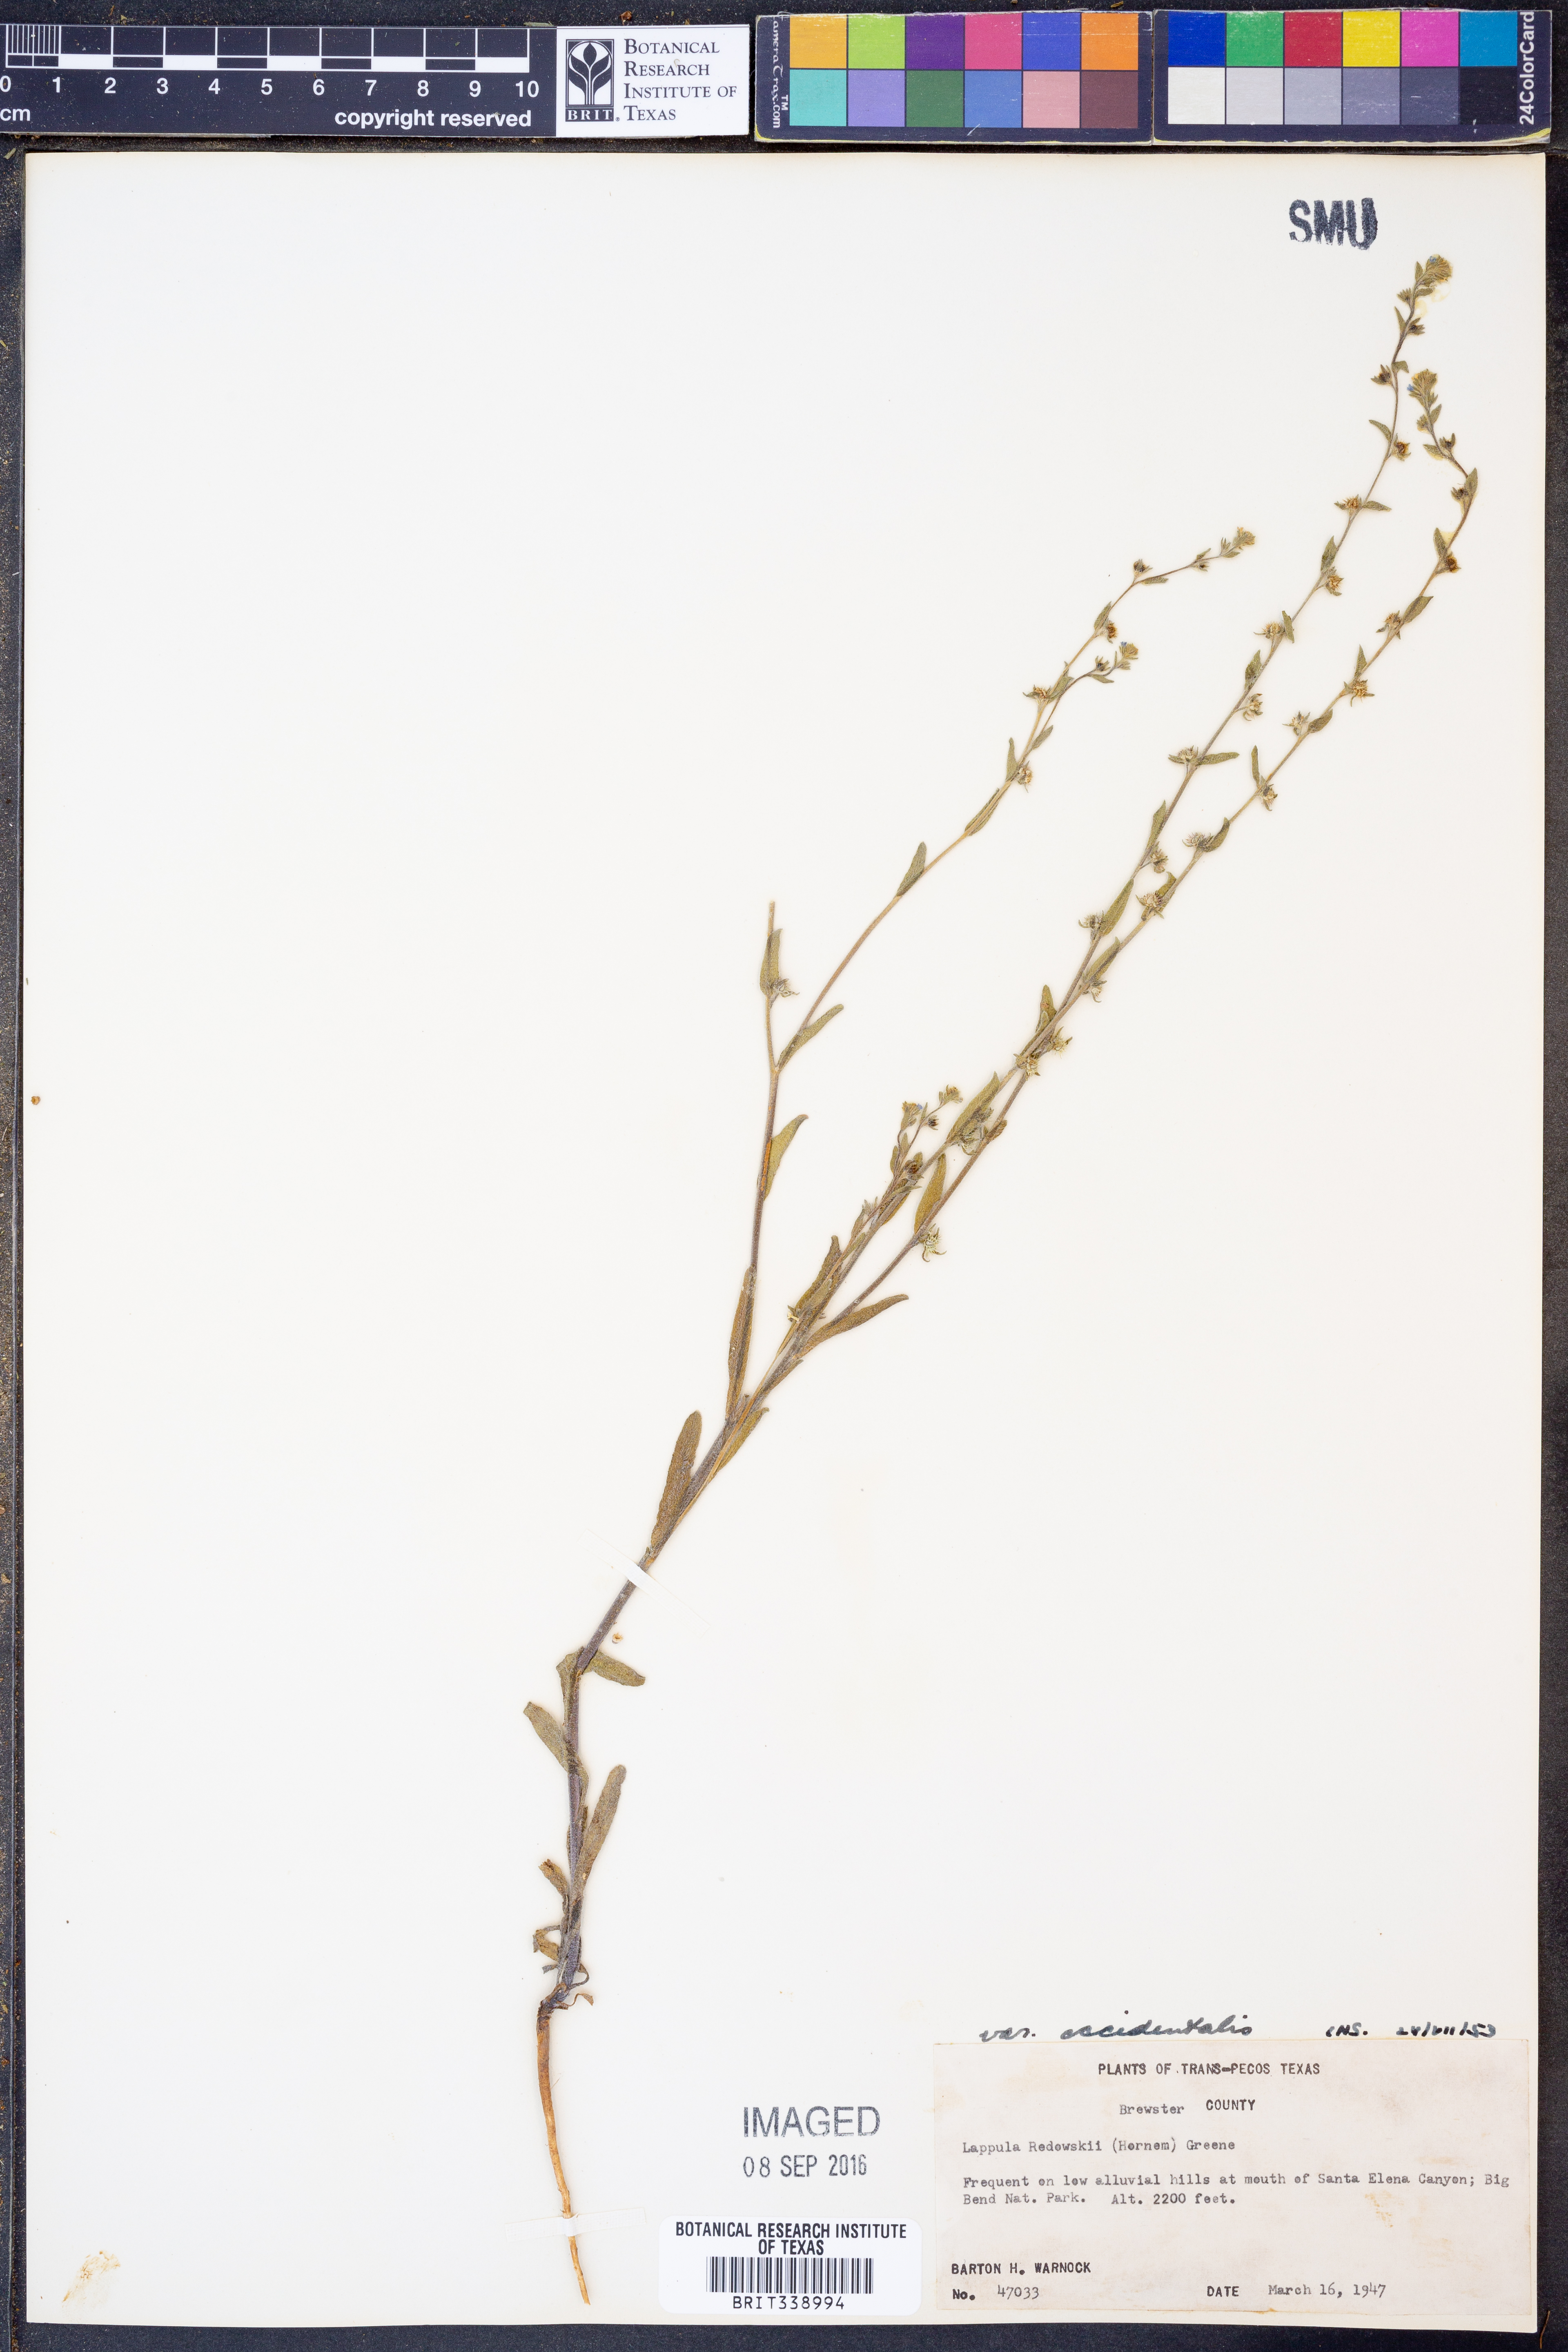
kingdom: Plantae
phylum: Tracheophyta
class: Magnoliopsida
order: Boraginales
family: Boraginaceae
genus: Lappula
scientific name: Lappula occidentalis
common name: Western stickseed
